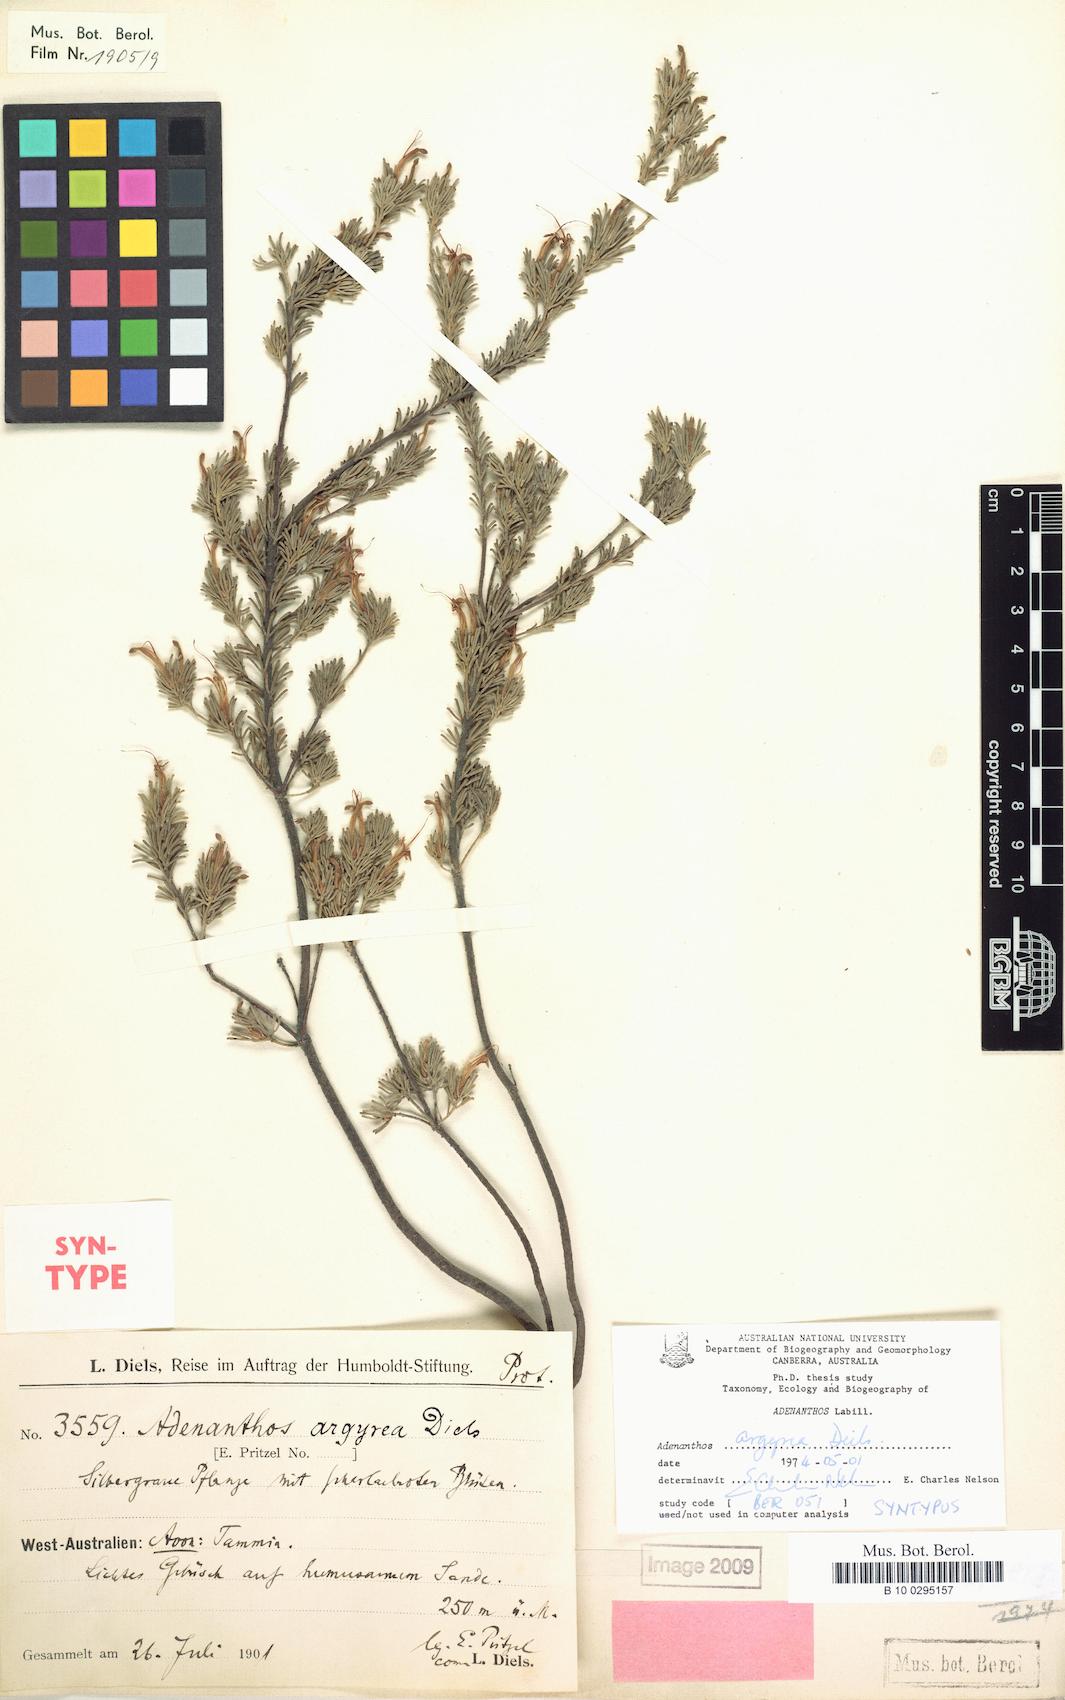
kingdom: Plantae
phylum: Tracheophyta
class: Magnoliopsida
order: Proteales
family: Proteaceae
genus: Adenanthos
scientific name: Adenanthos argyreus
